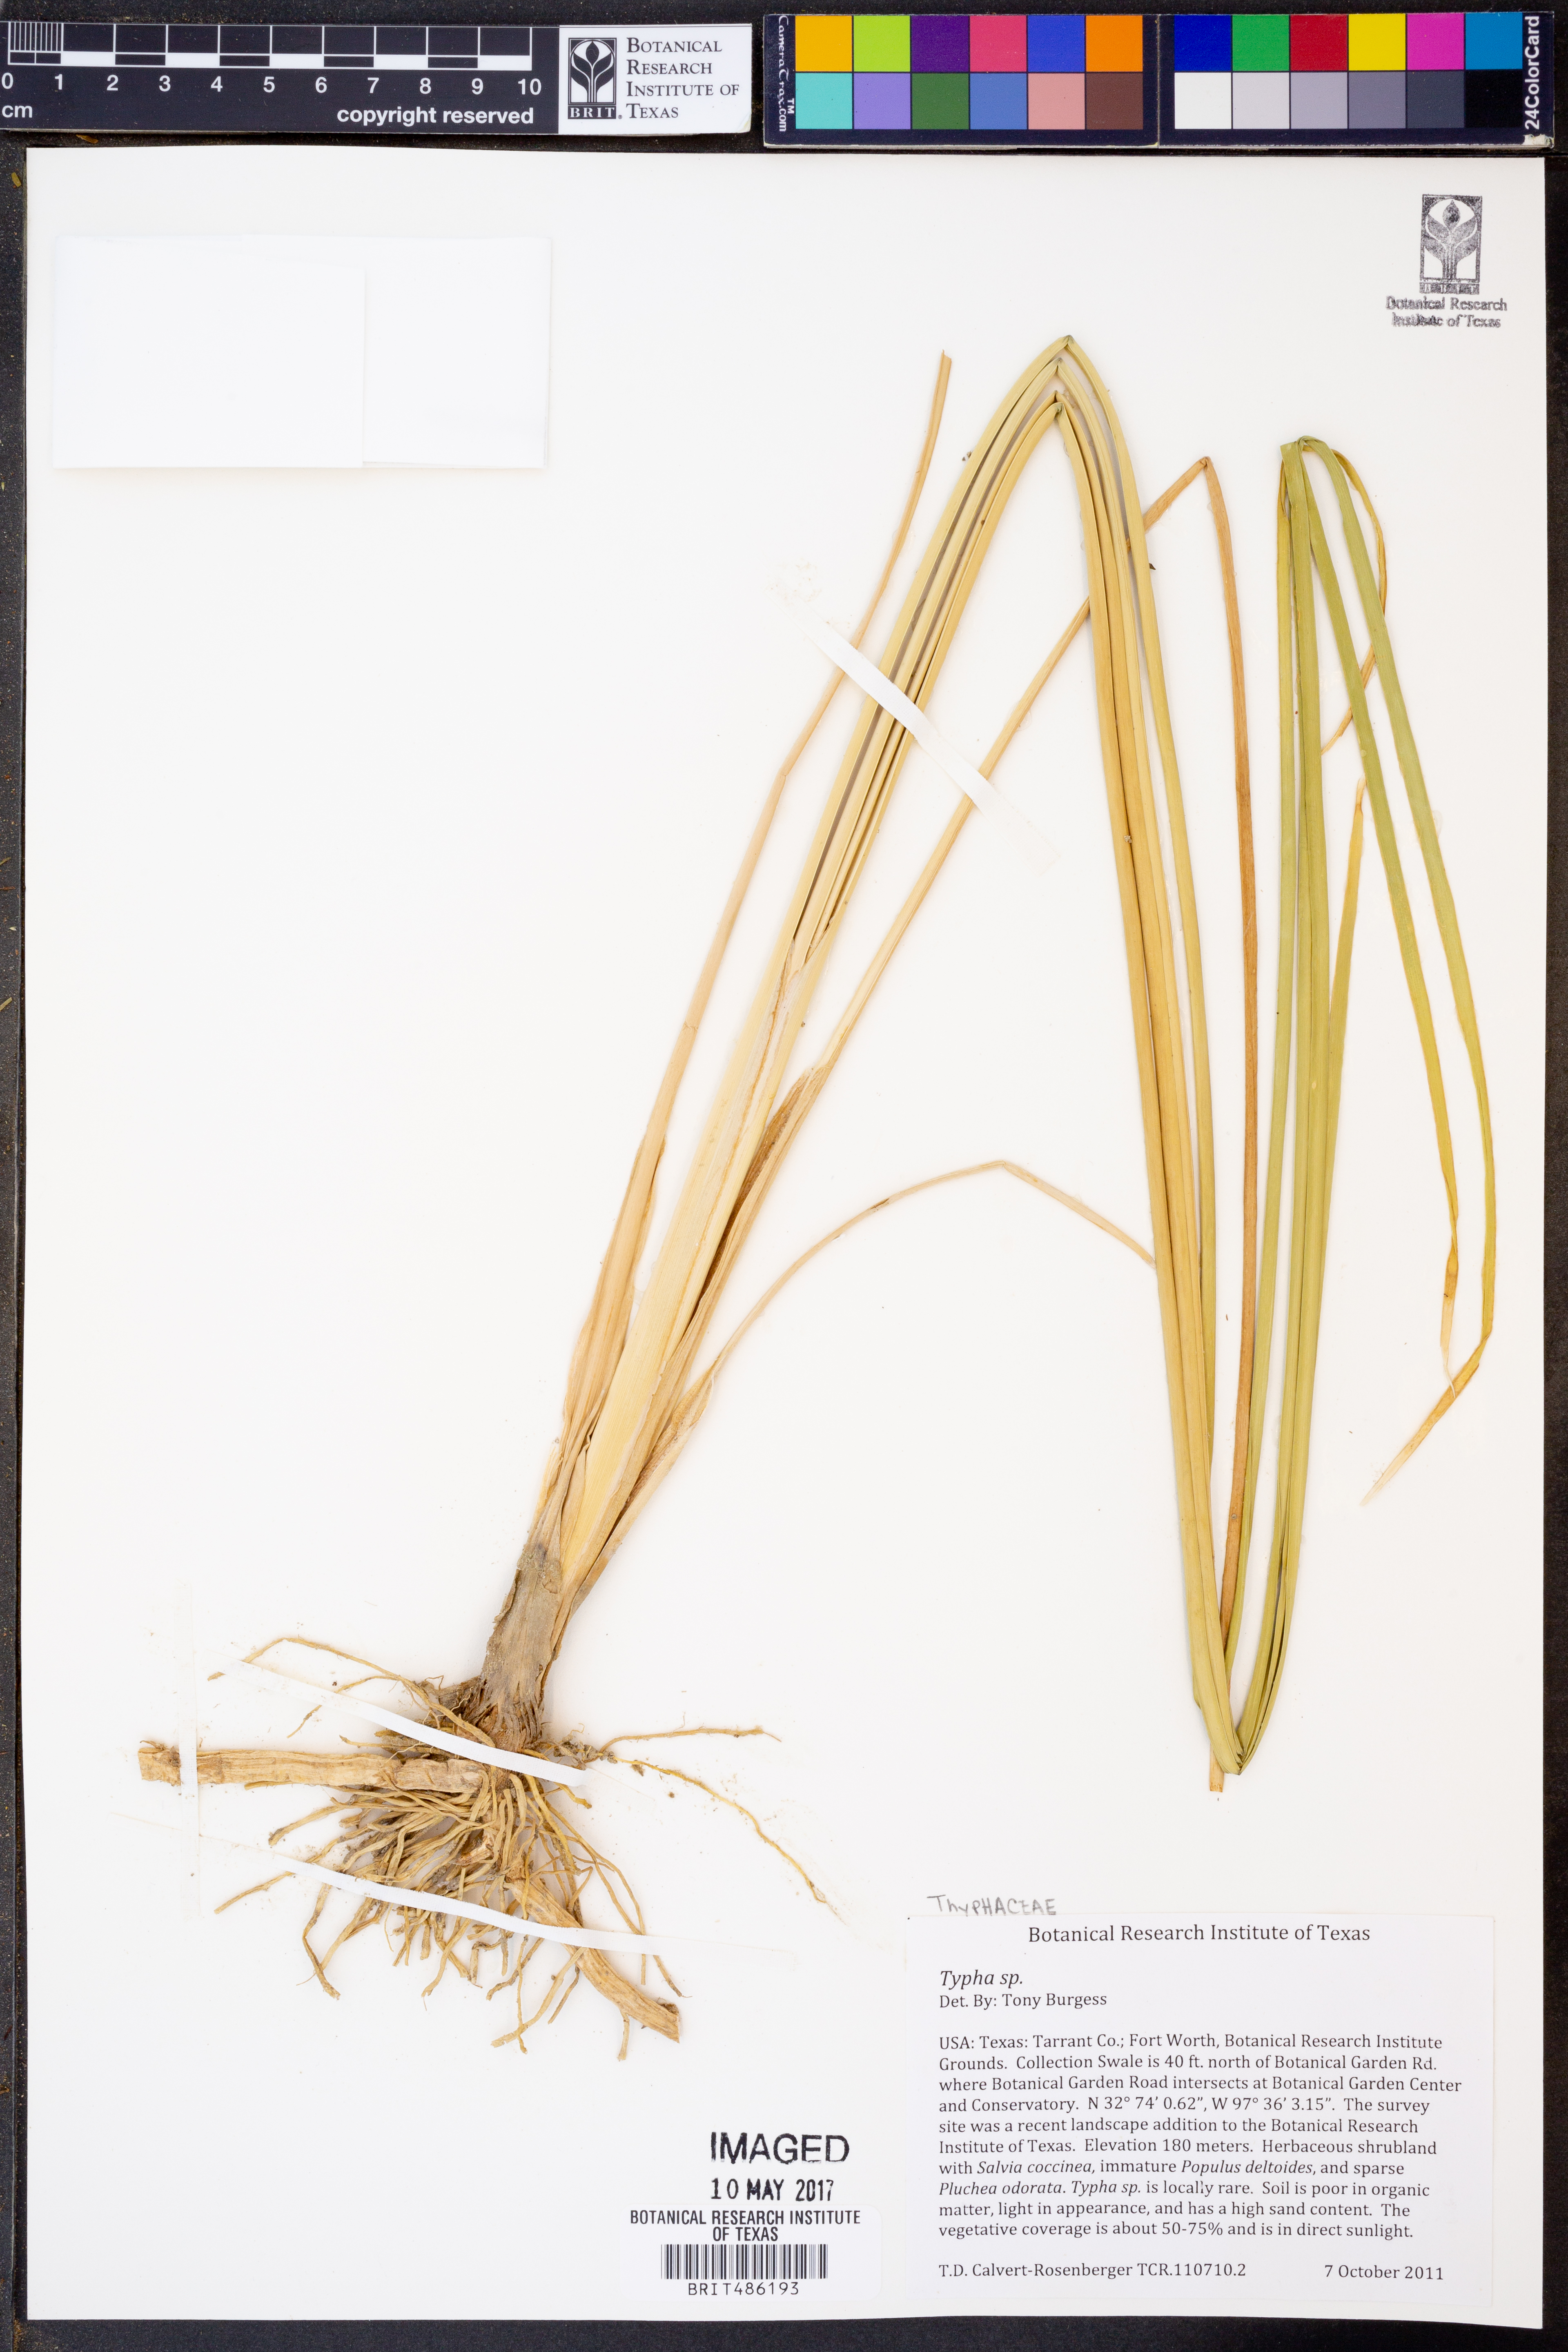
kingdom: Plantae
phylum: Tracheophyta
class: Liliopsida
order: Poales
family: Typhaceae
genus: Typha
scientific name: Typha
